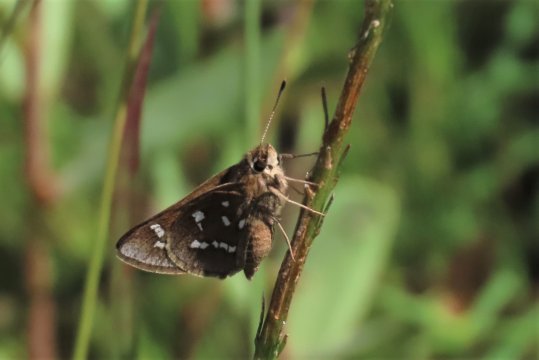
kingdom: Animalia
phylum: Arthropoda
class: Insecta
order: Lepidoptera
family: Hesperiidae
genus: Atrytonopsis
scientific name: Atrytonopsis loammi
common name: Loammi Skipper
